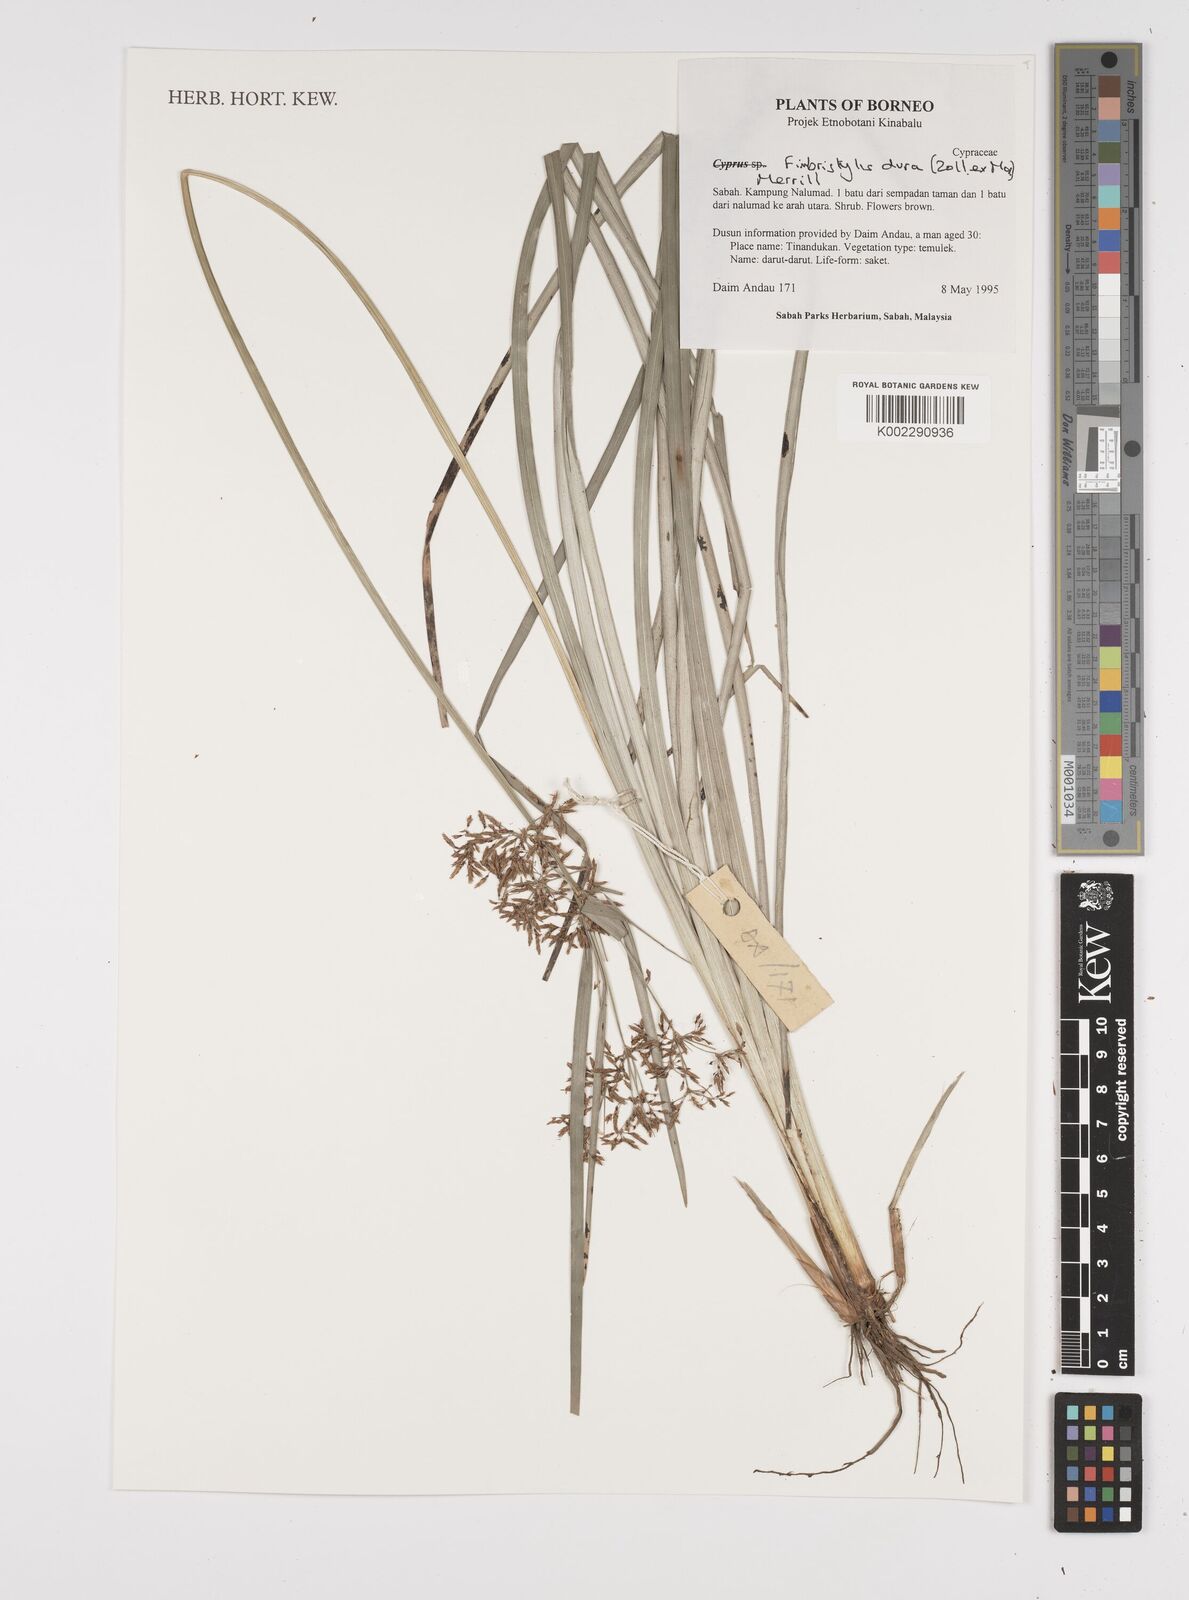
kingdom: Plantae
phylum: Tracheophyta
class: Liliopsida
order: Poales
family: Cyperaceae
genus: Fimbristylis
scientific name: Fimbristylis dura
